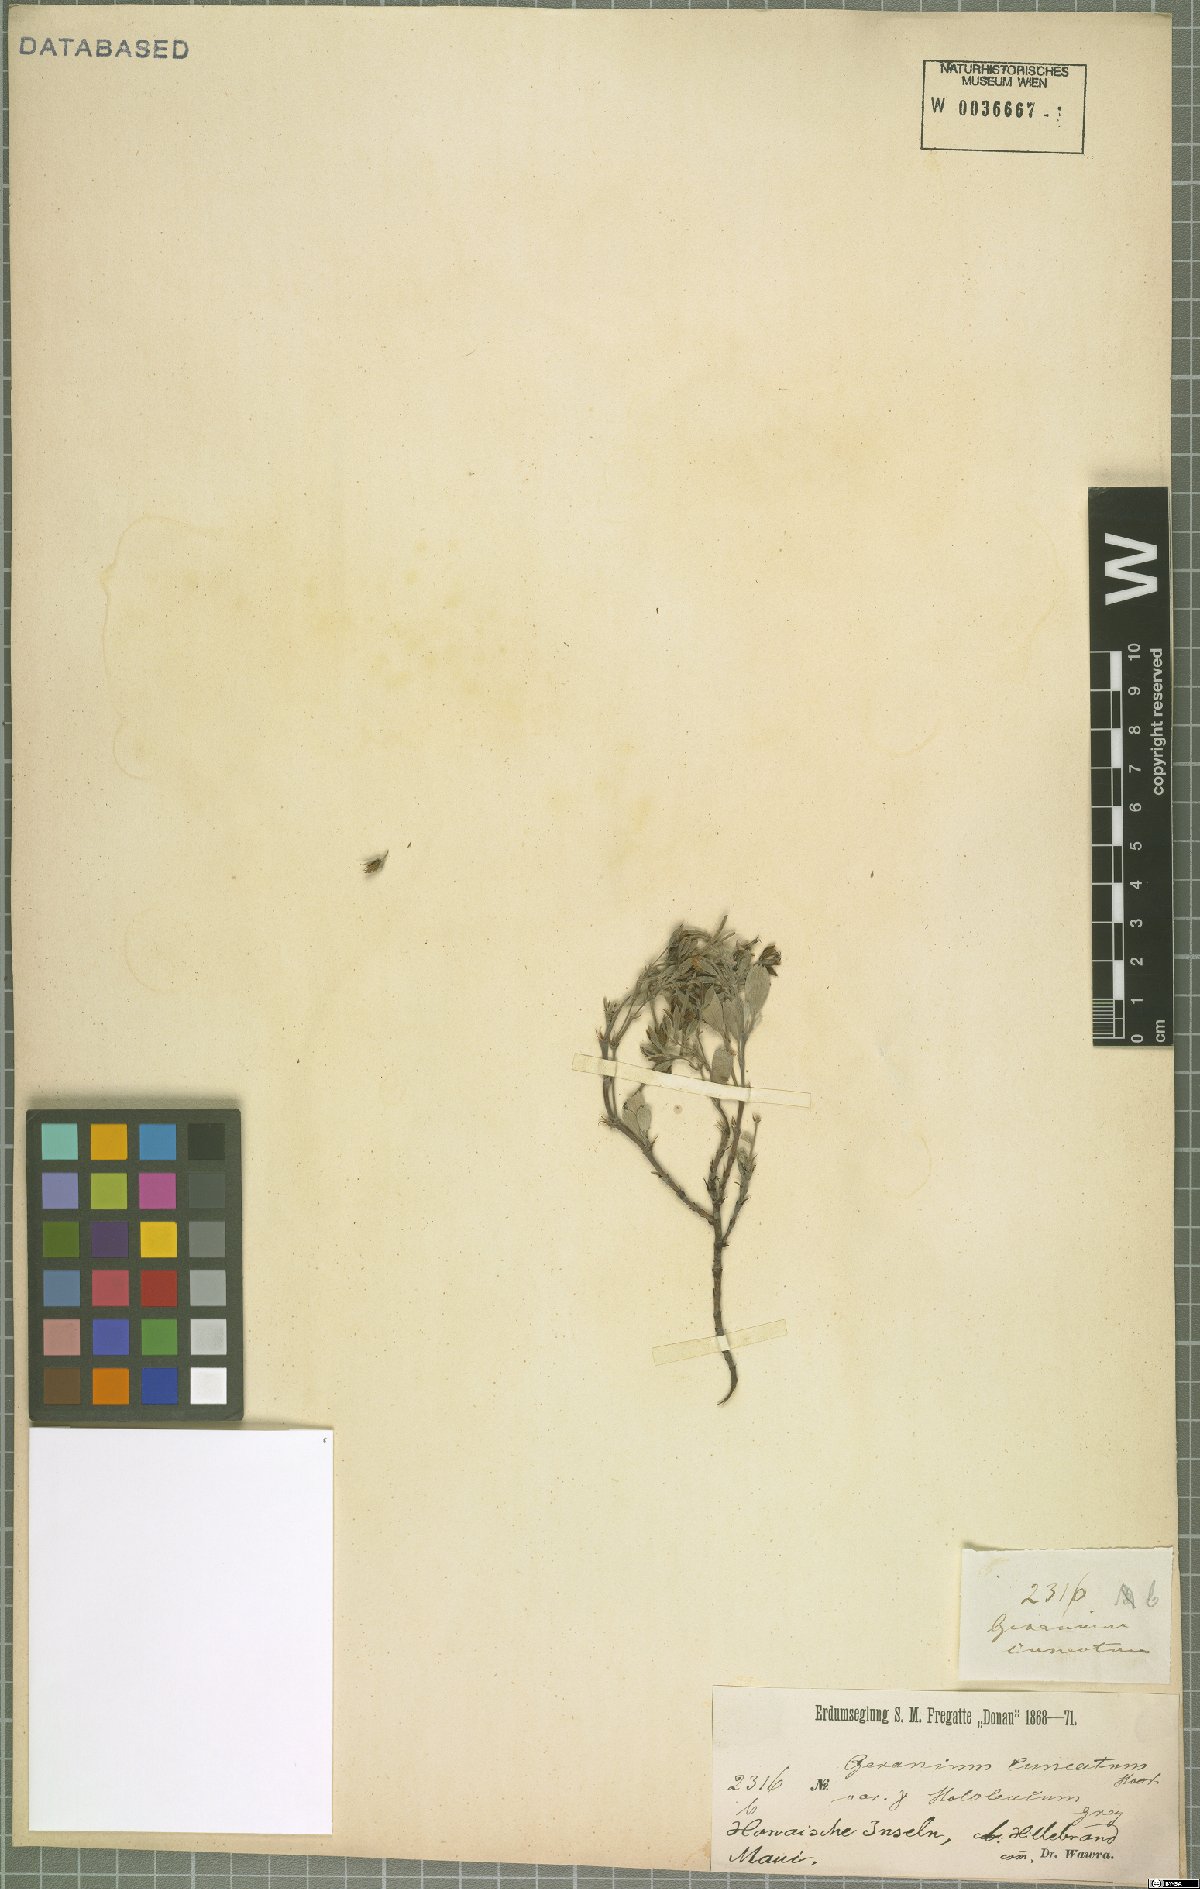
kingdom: Plantae
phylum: Tracheophyta
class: Magnoliopsida
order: Geraniales
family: Geraniaceae
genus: Geranium
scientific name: Geranium cuneatum
